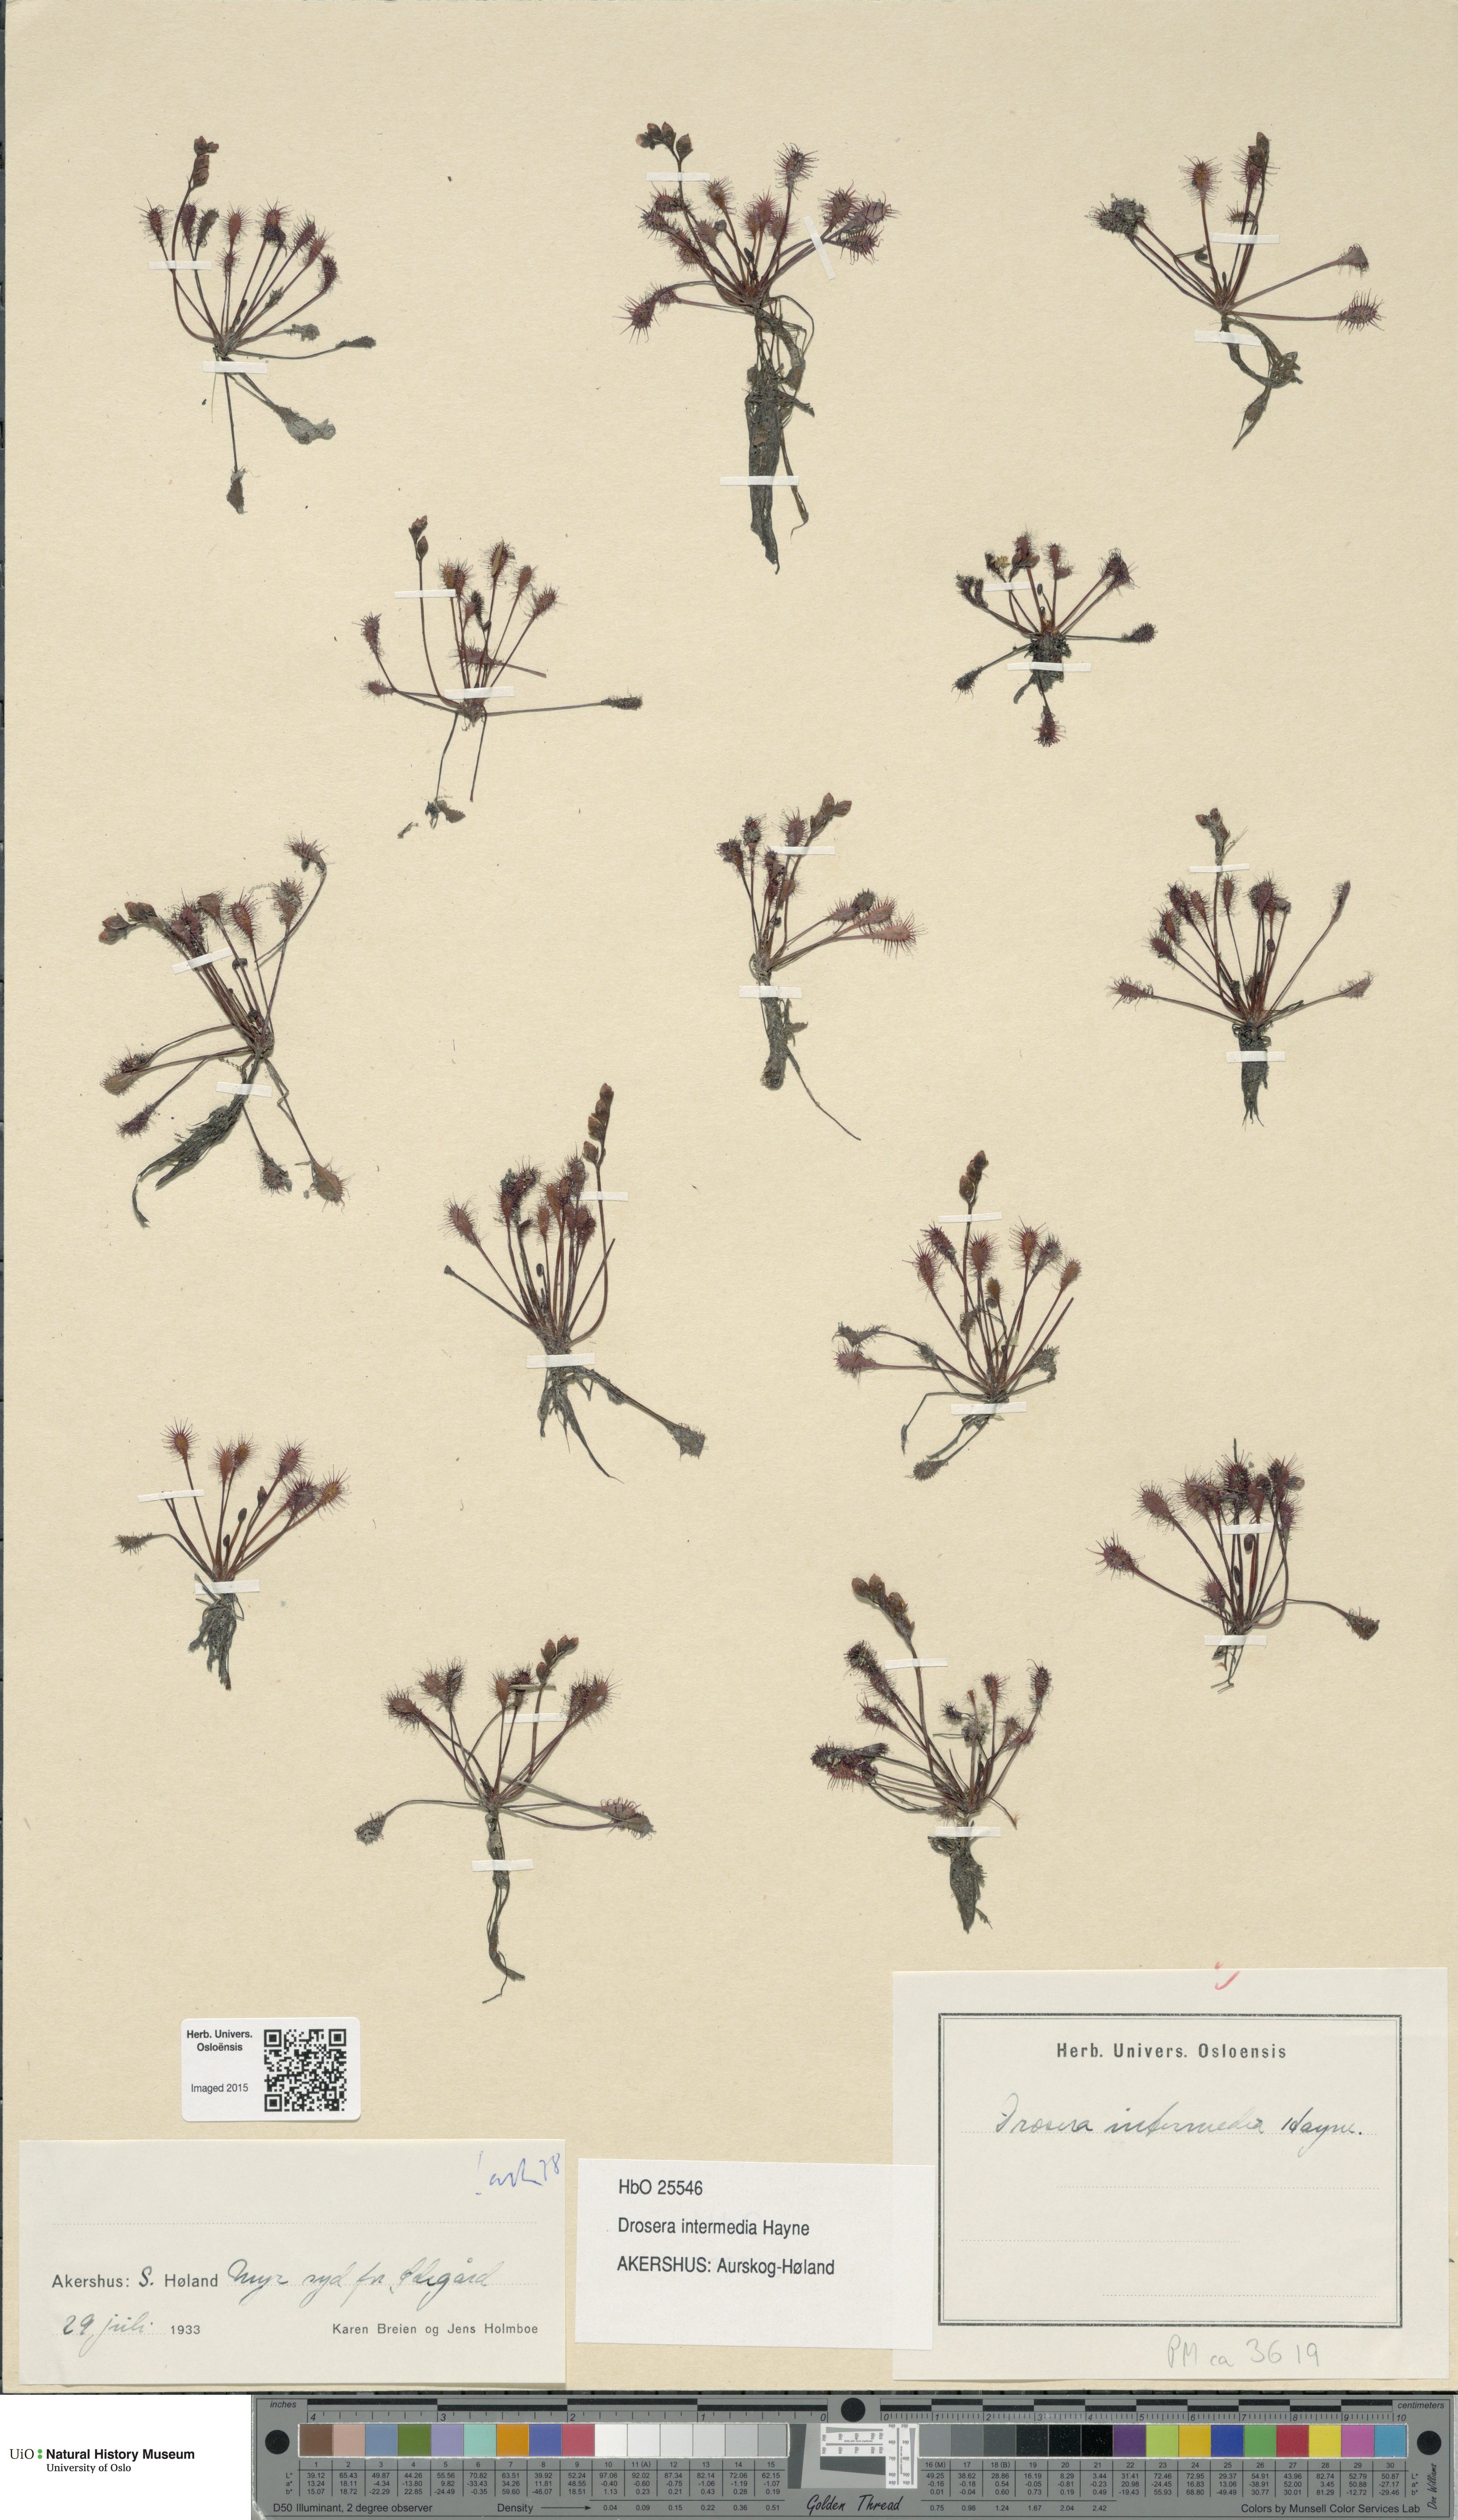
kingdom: Plantae
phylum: Tracheophyta
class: Magnoliopsida
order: Caryophyllales
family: Droseraceae
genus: Drosera
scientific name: Drosera intermedia
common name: Oblong-leaved sundew
